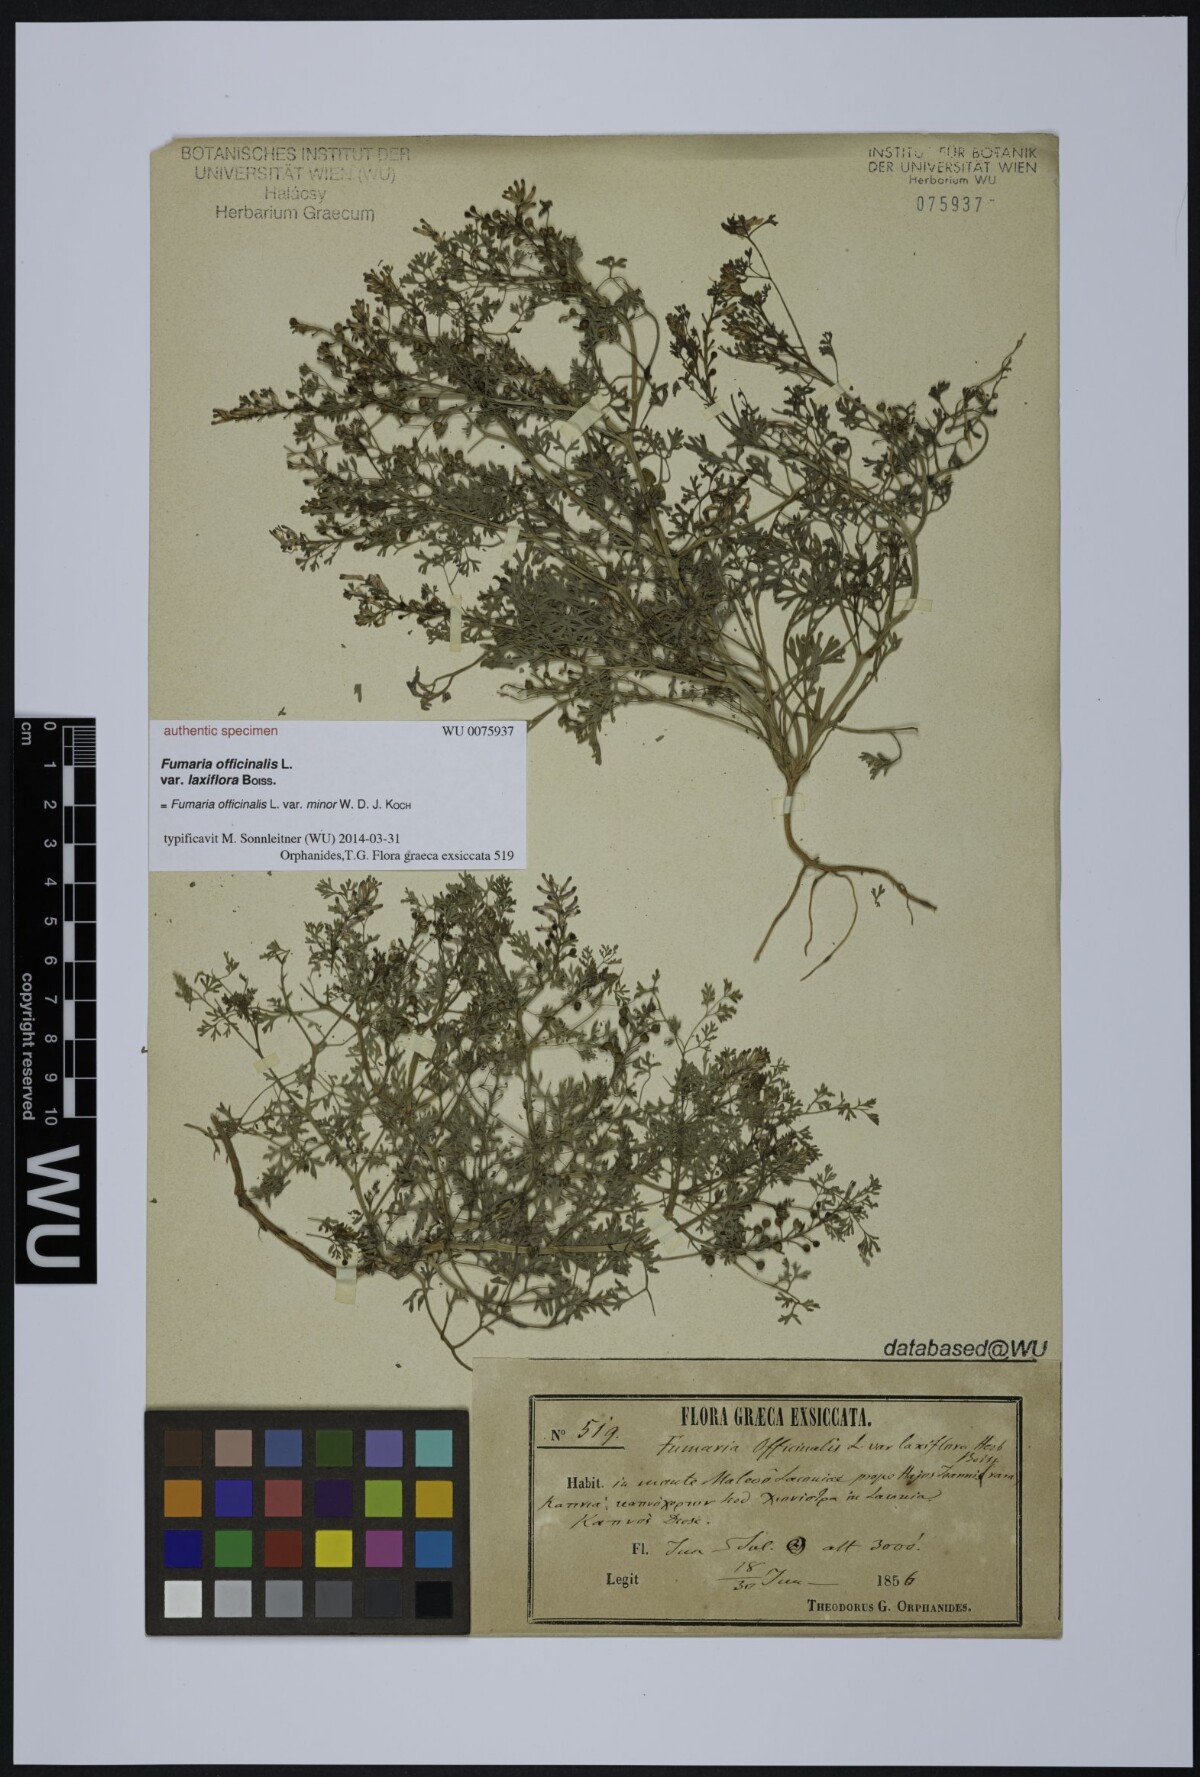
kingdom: Plantae
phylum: Tracheophyta
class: Magnoliopsida
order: Ranunculales
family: Papaveraceae
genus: Fumaria
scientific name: Fumaria officinalis
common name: Common fumitory
